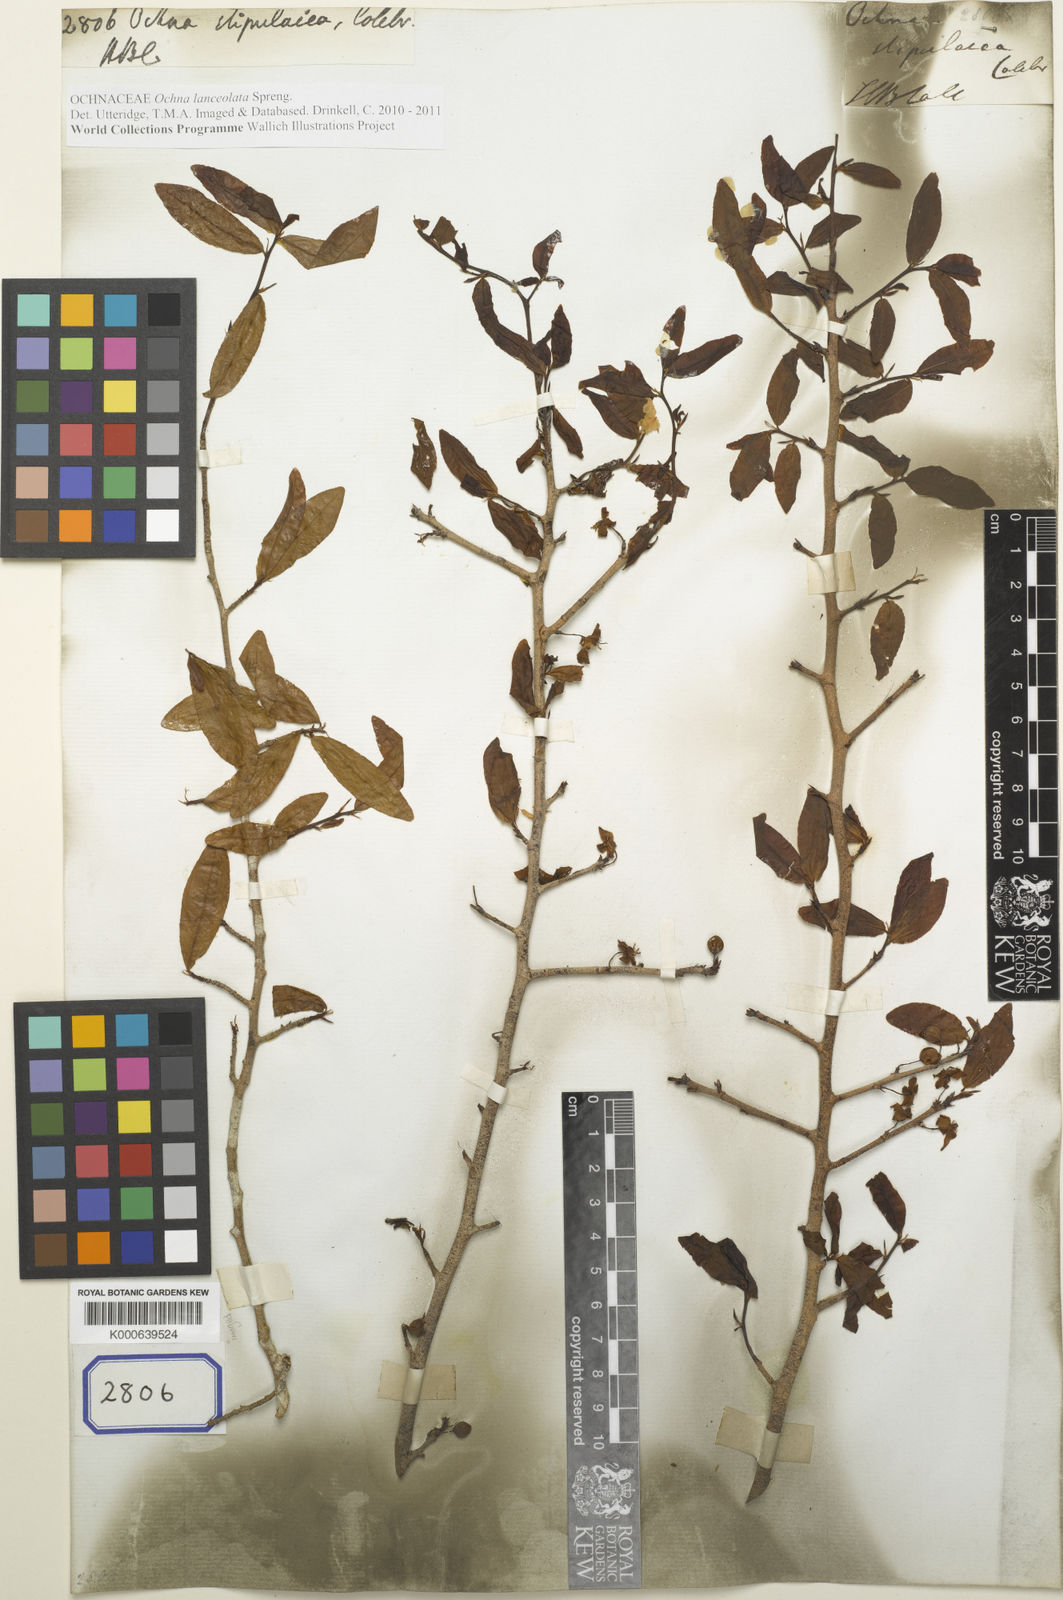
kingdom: Plantae
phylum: Tracheophyta
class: Magnoliopsida
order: Malpighiales
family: Ochnaceae
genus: Ochna
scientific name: Ochna
